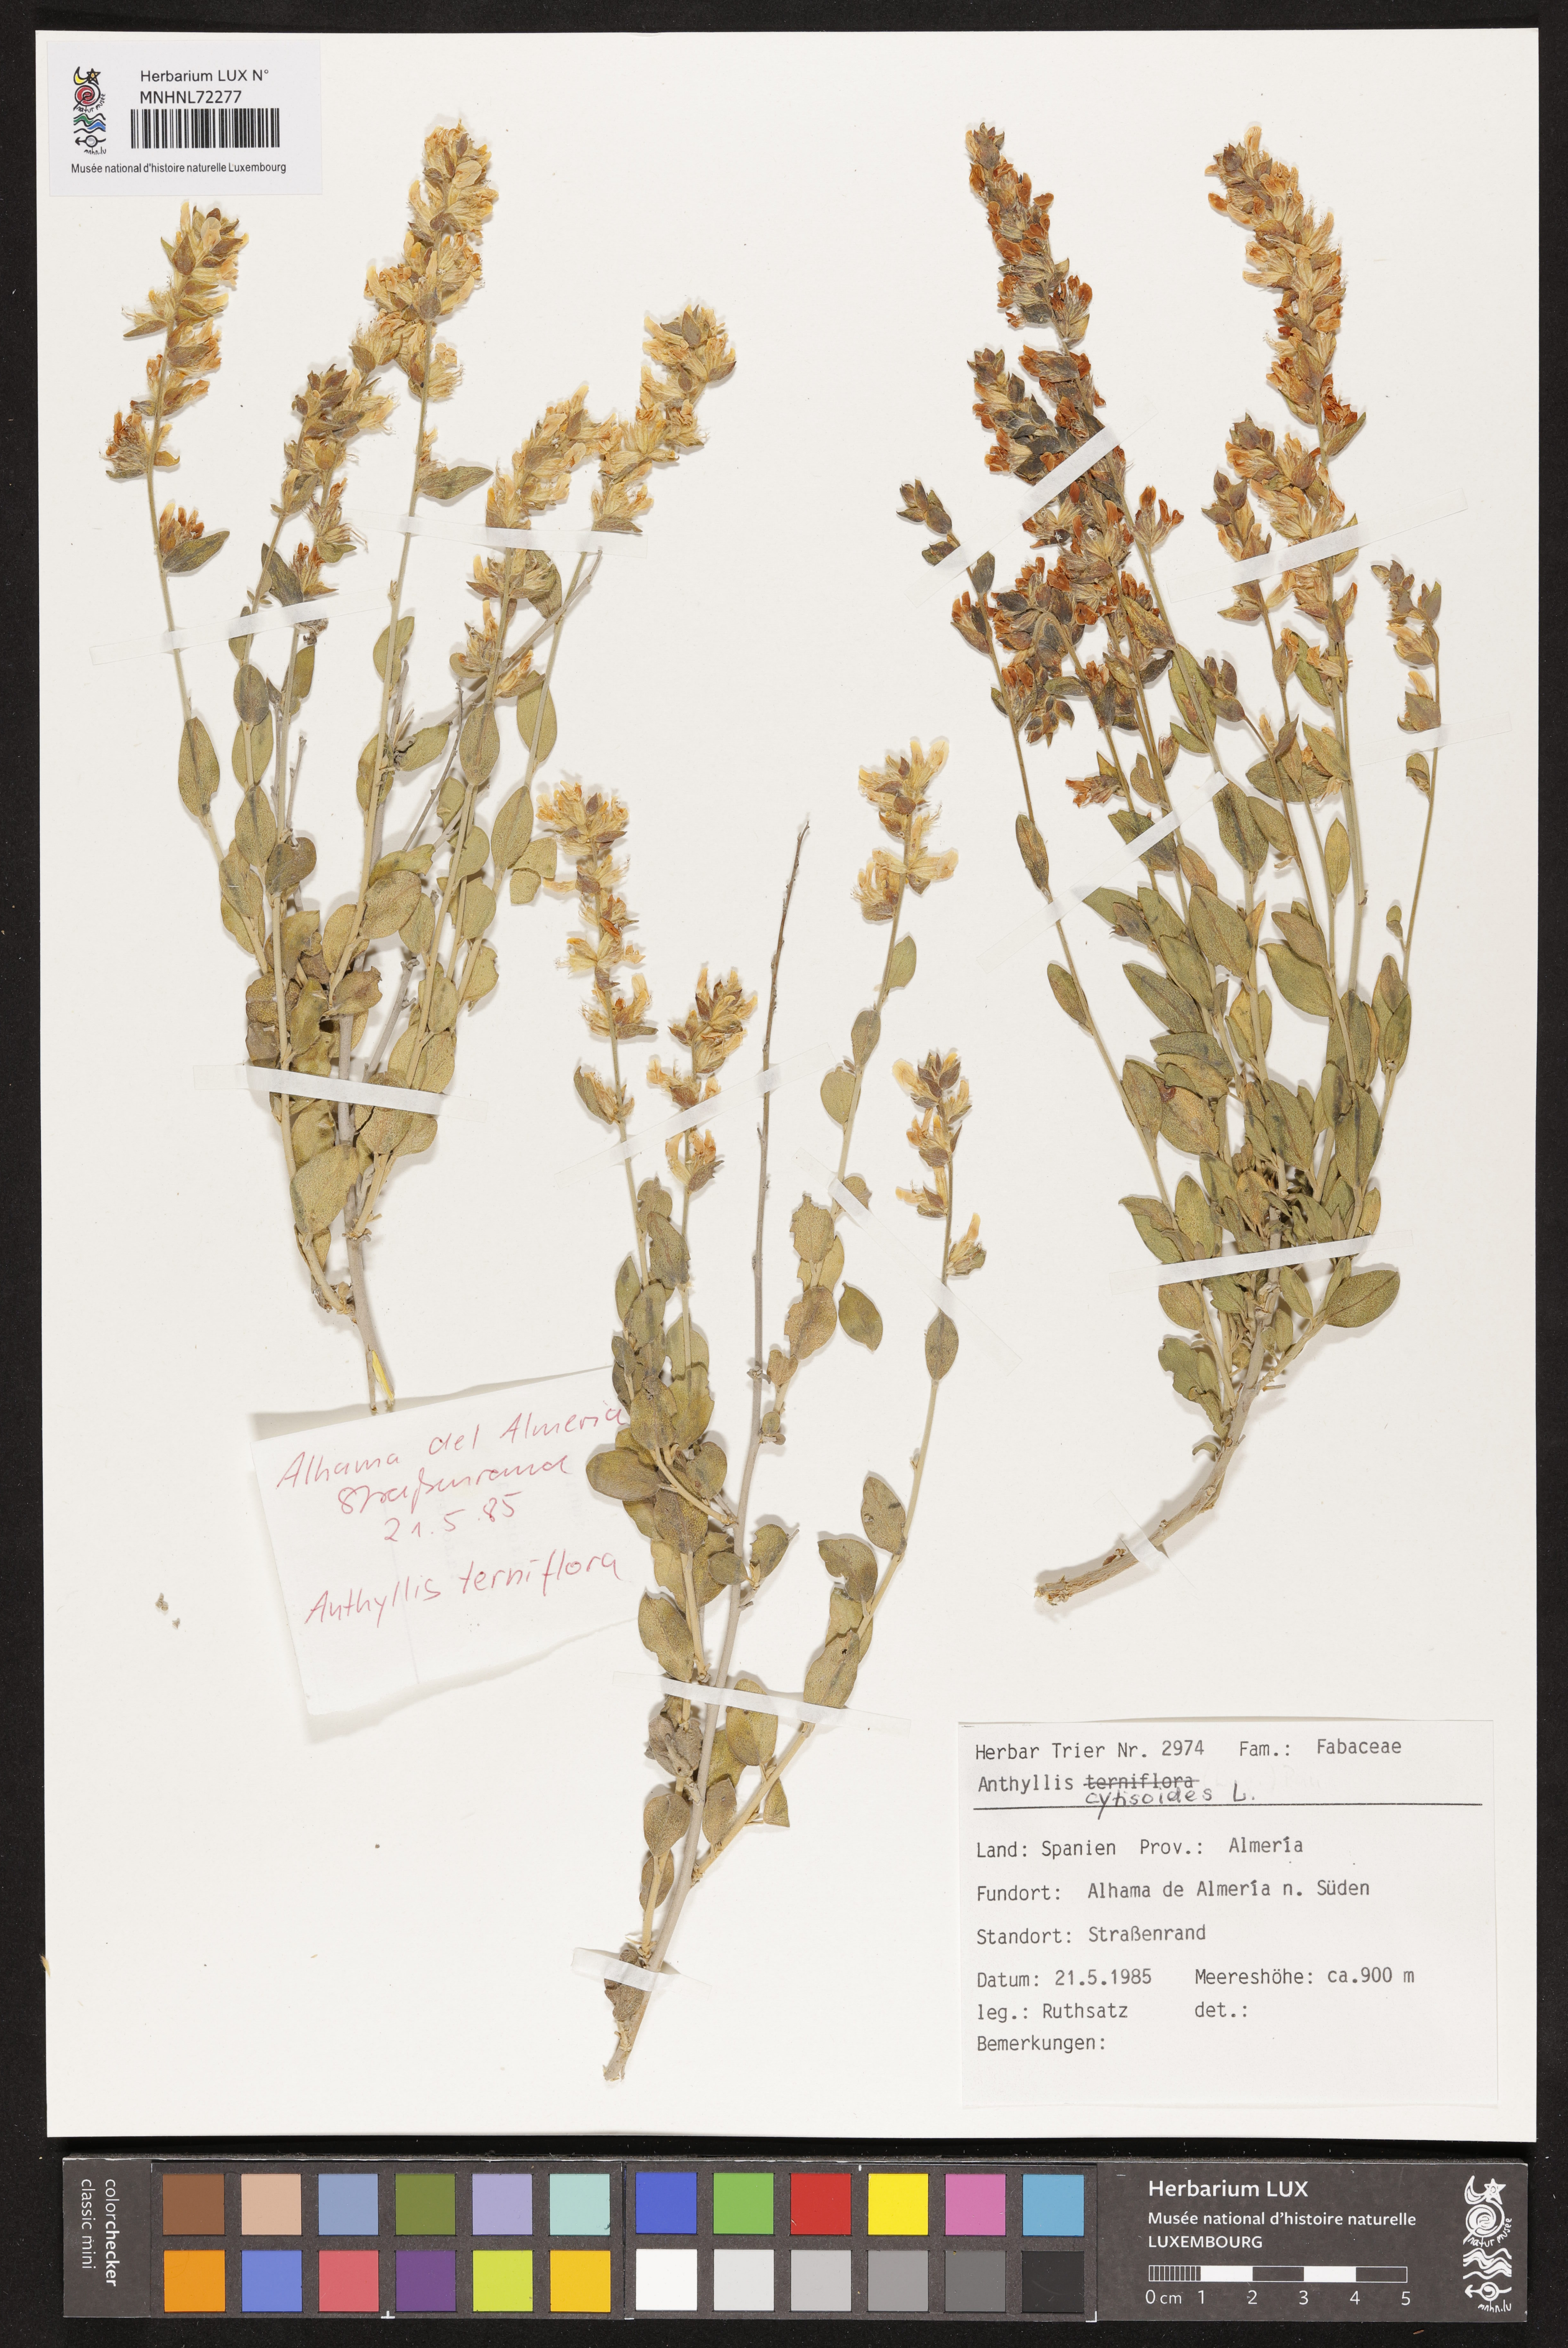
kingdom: Plantae
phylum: Tracheophyta
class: Magnoliopsida
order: Fabales
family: Fabaceae
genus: Anthyllis
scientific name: Anthyllis cytisoides
